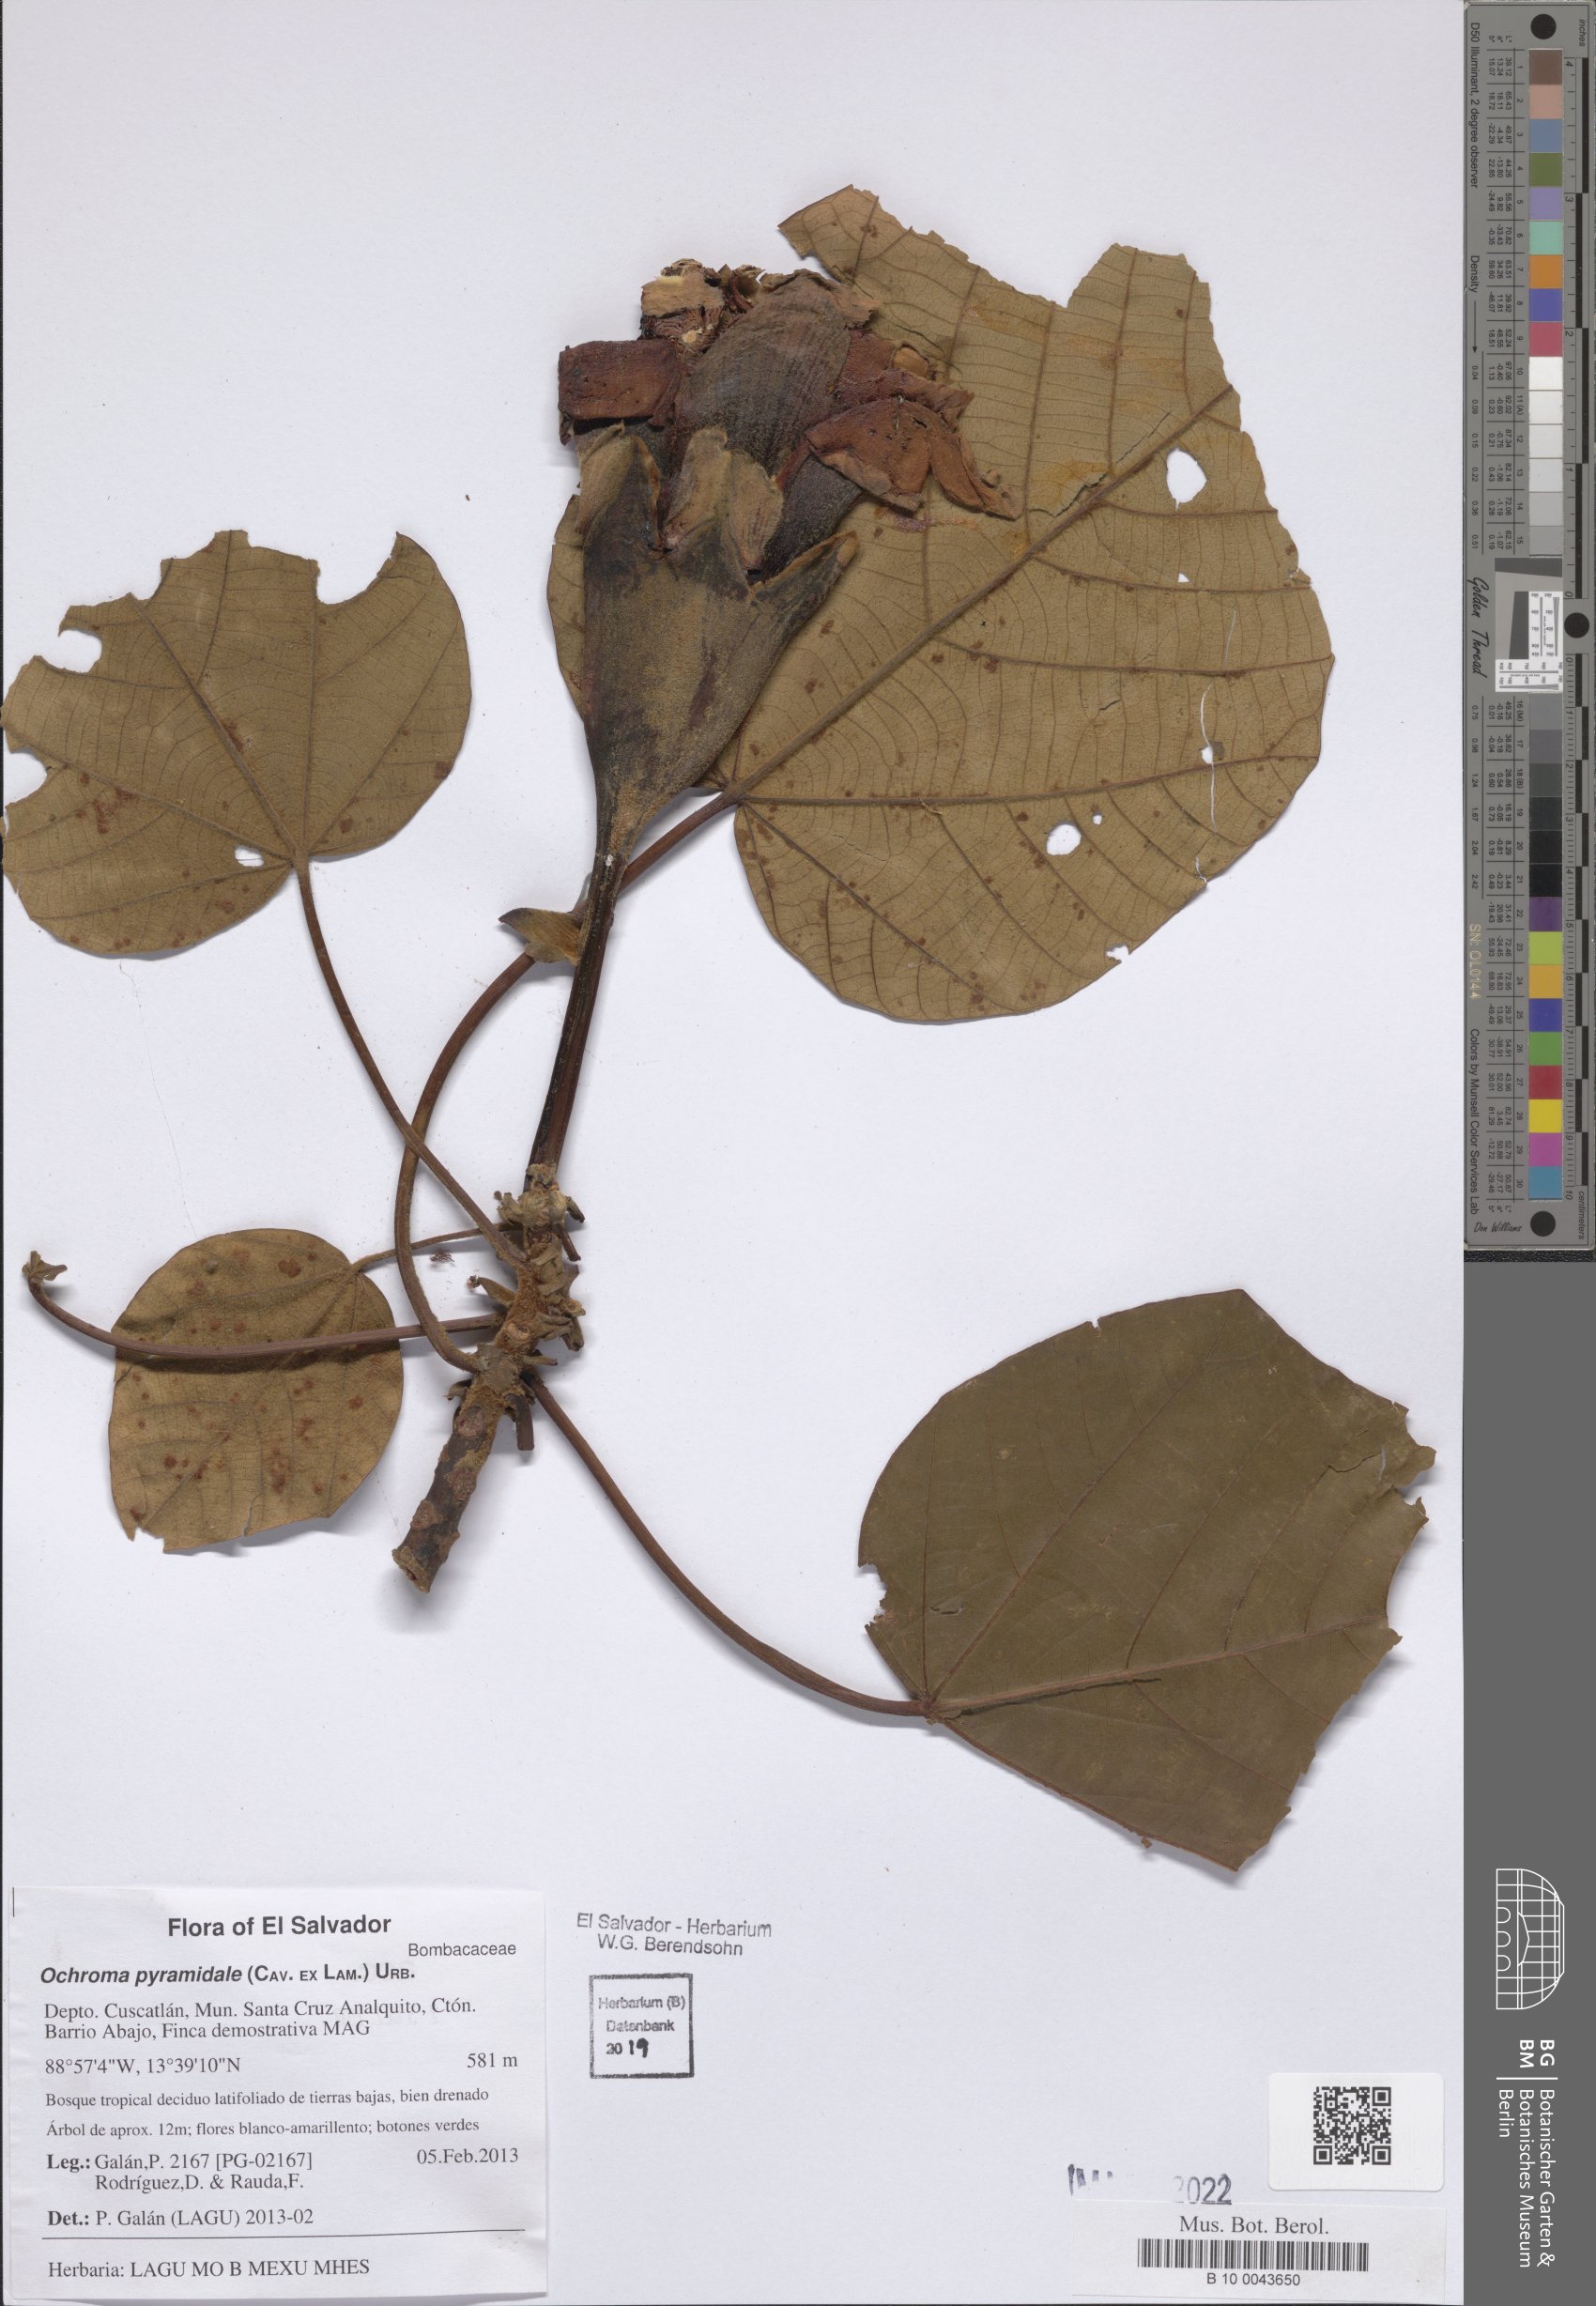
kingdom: Plantae
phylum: Tracheophyta
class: Magnoliopsida
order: Malvales
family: Malvaceae
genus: Ochroma
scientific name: Ochroma pyramidale
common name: Balsa
